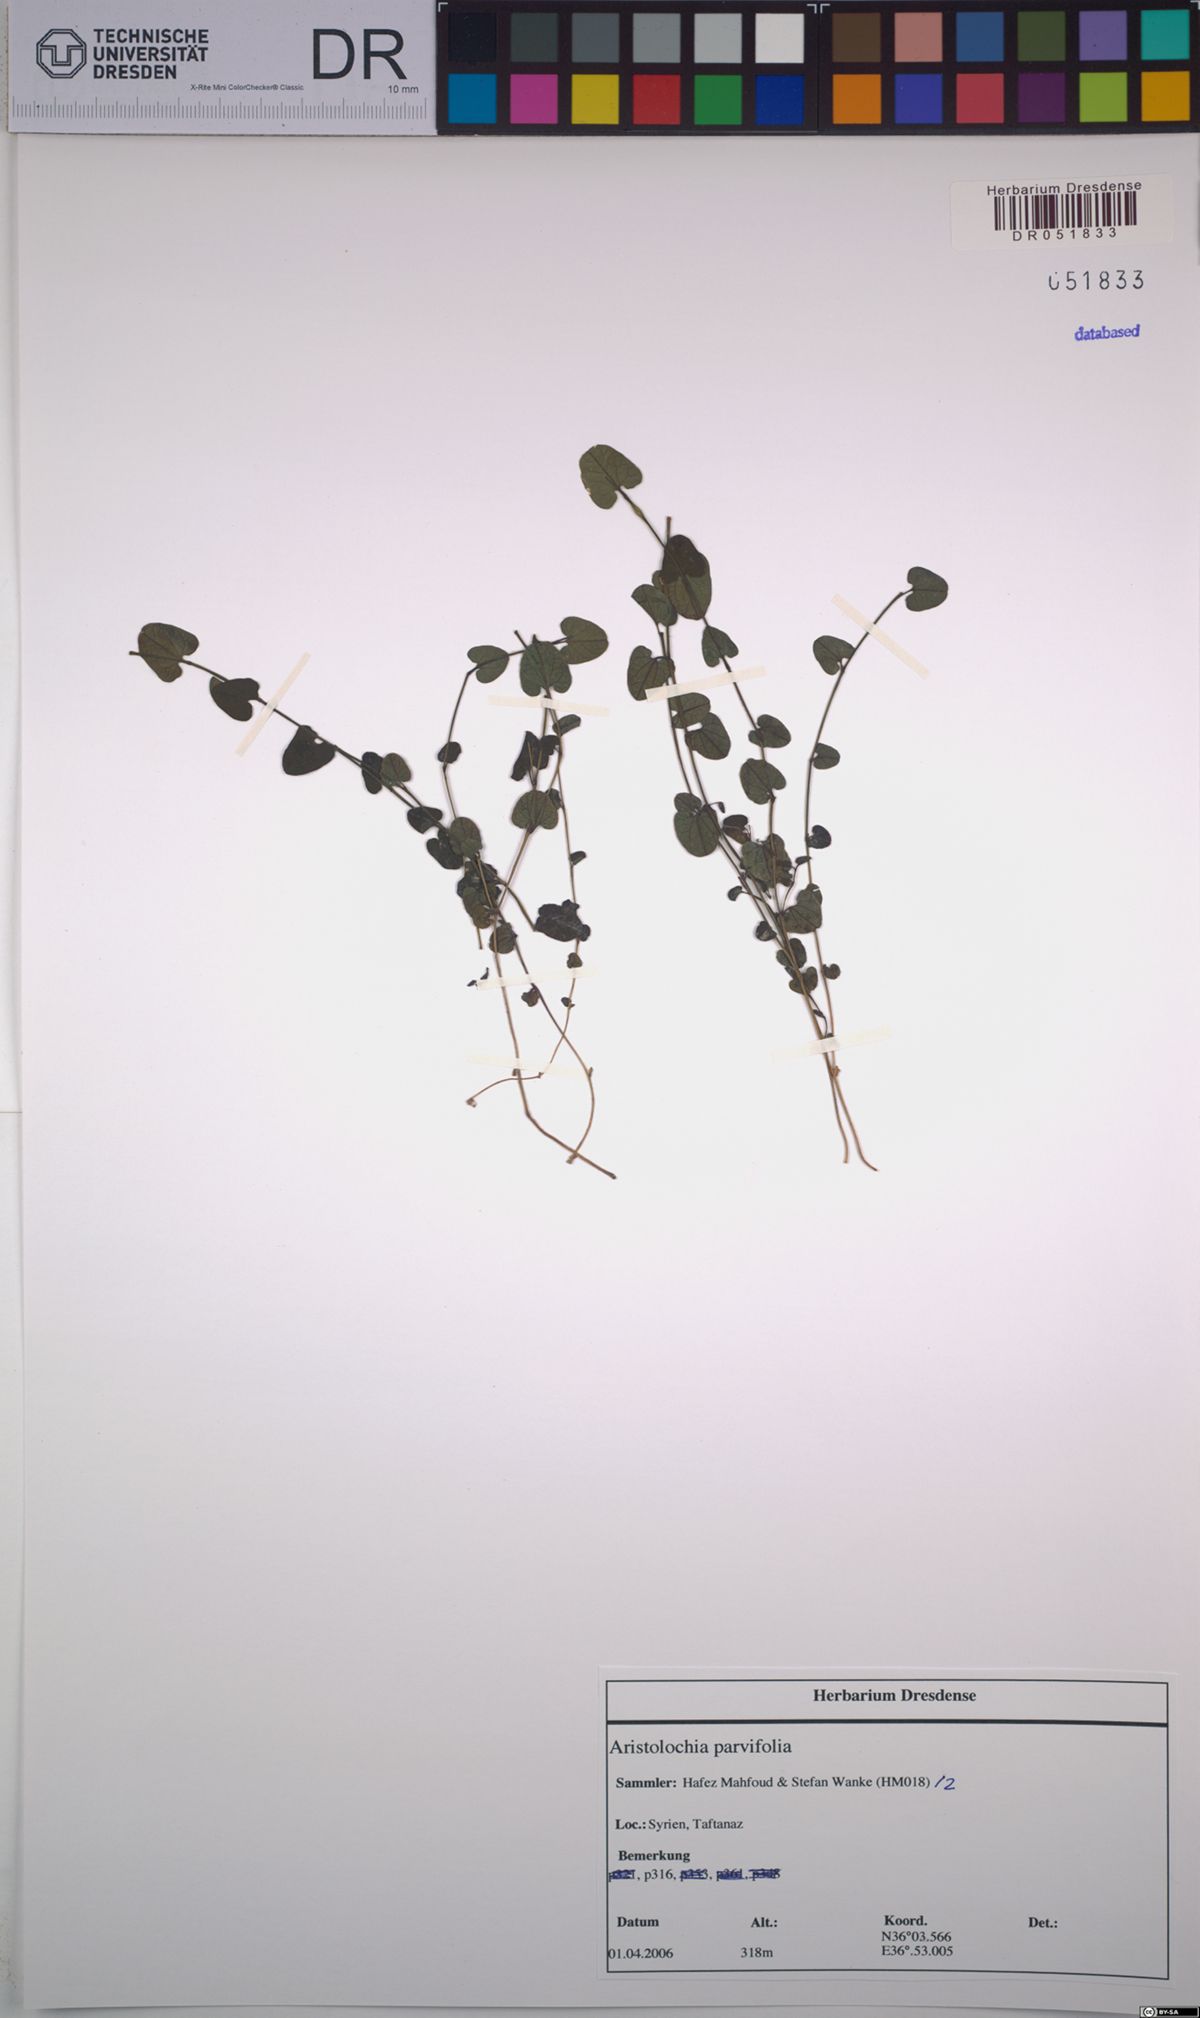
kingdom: Plantae
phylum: Tracheophyta
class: Magnoliopsida
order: Piperales
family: Aristolochiaceae
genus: Aristolochia
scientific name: Aristolochia parvifolia
